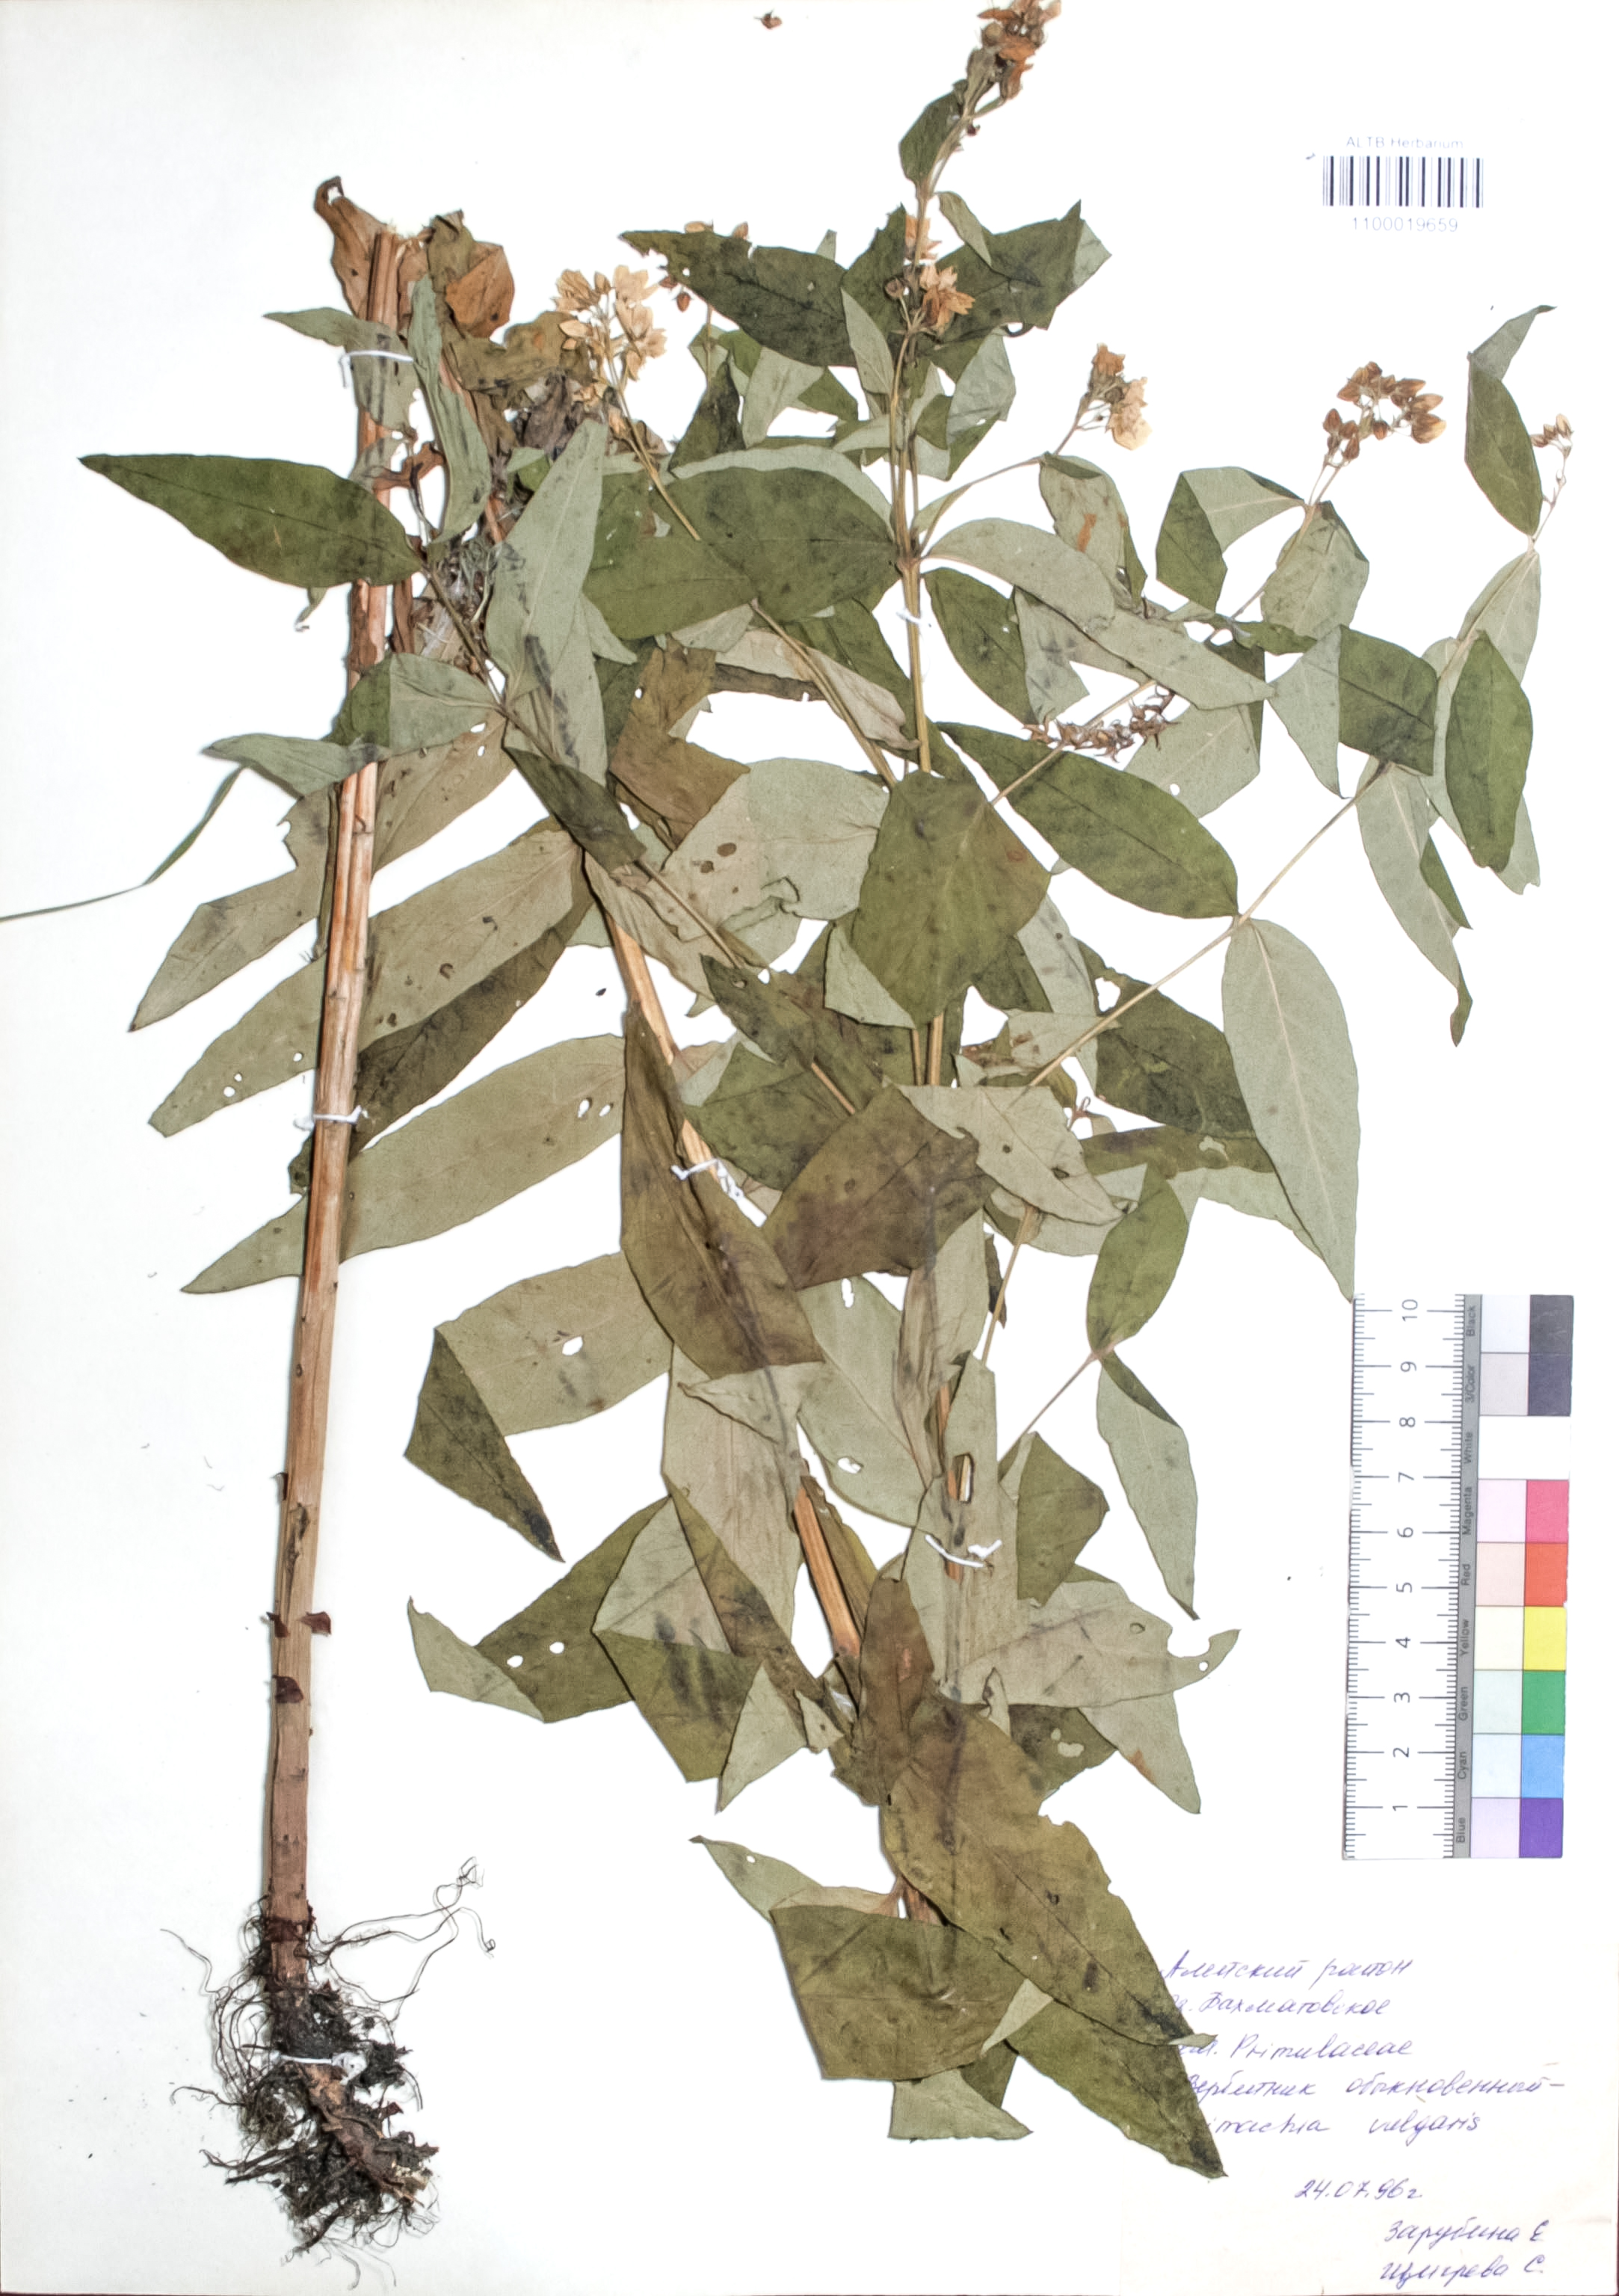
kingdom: Plantae
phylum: Tracheophyta
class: Magnoliopsida
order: Ericales
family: Primulaceae
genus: Lysimachia
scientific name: Lysimachia vulgaris
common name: Yellow loosestrife
